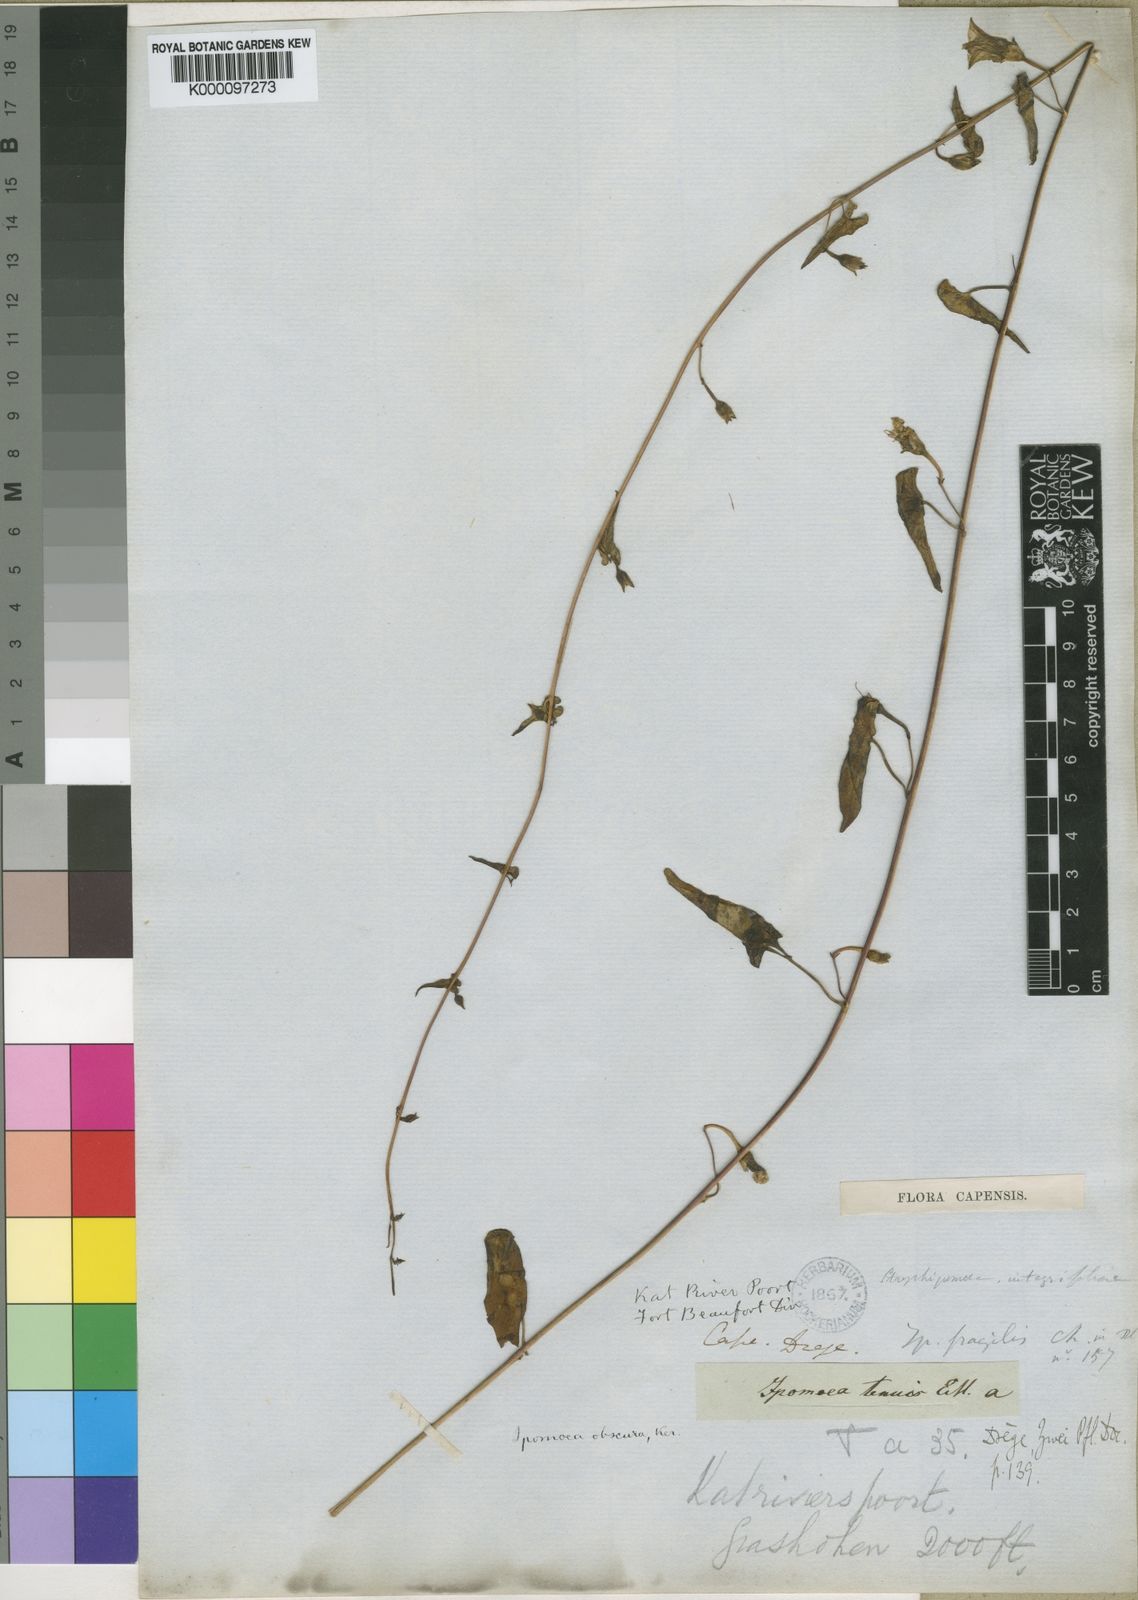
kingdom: Plantae
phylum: Tracheophyta
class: Magnoliopsida
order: Solanales
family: Convolvulaceae
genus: Ipomoea
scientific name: Ipomoea ficifolia
